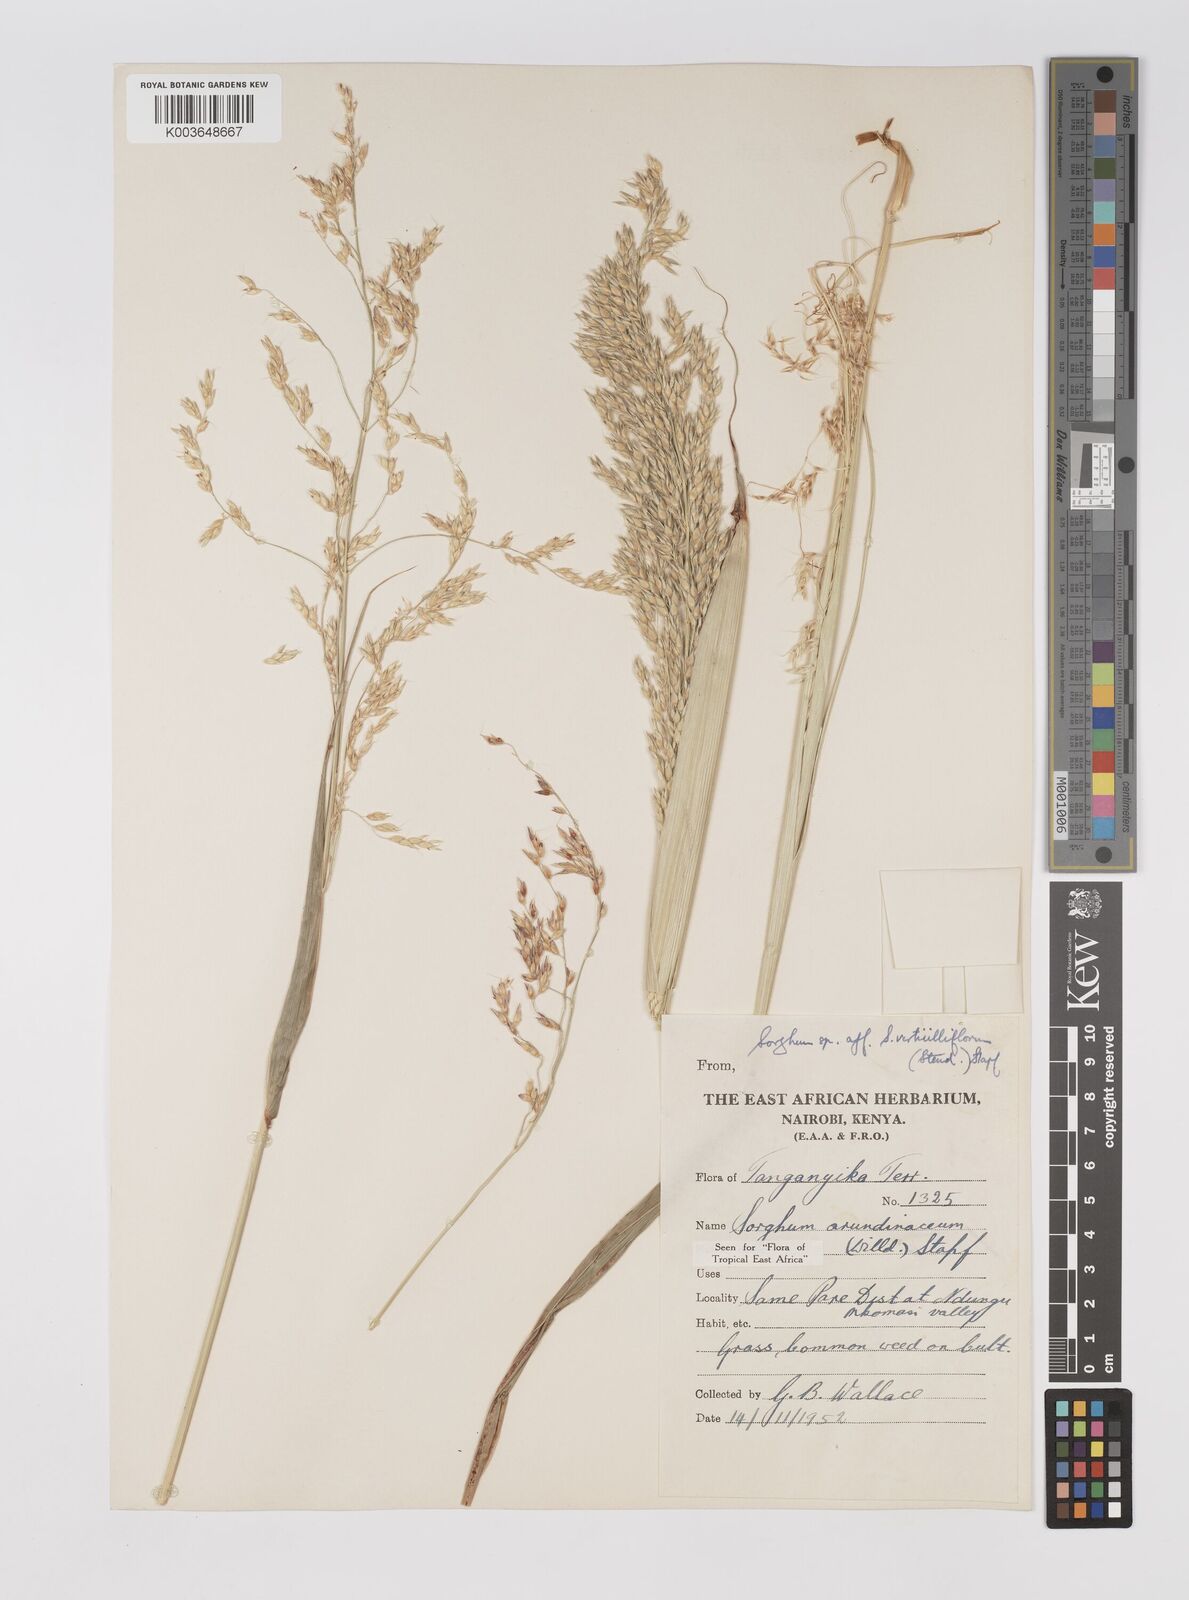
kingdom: Plantae
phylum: Tracheophyta
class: Liliopsida
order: Poales
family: Poaceae
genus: Sorghum
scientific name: Sorghum arundinaceum
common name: Sorghum
